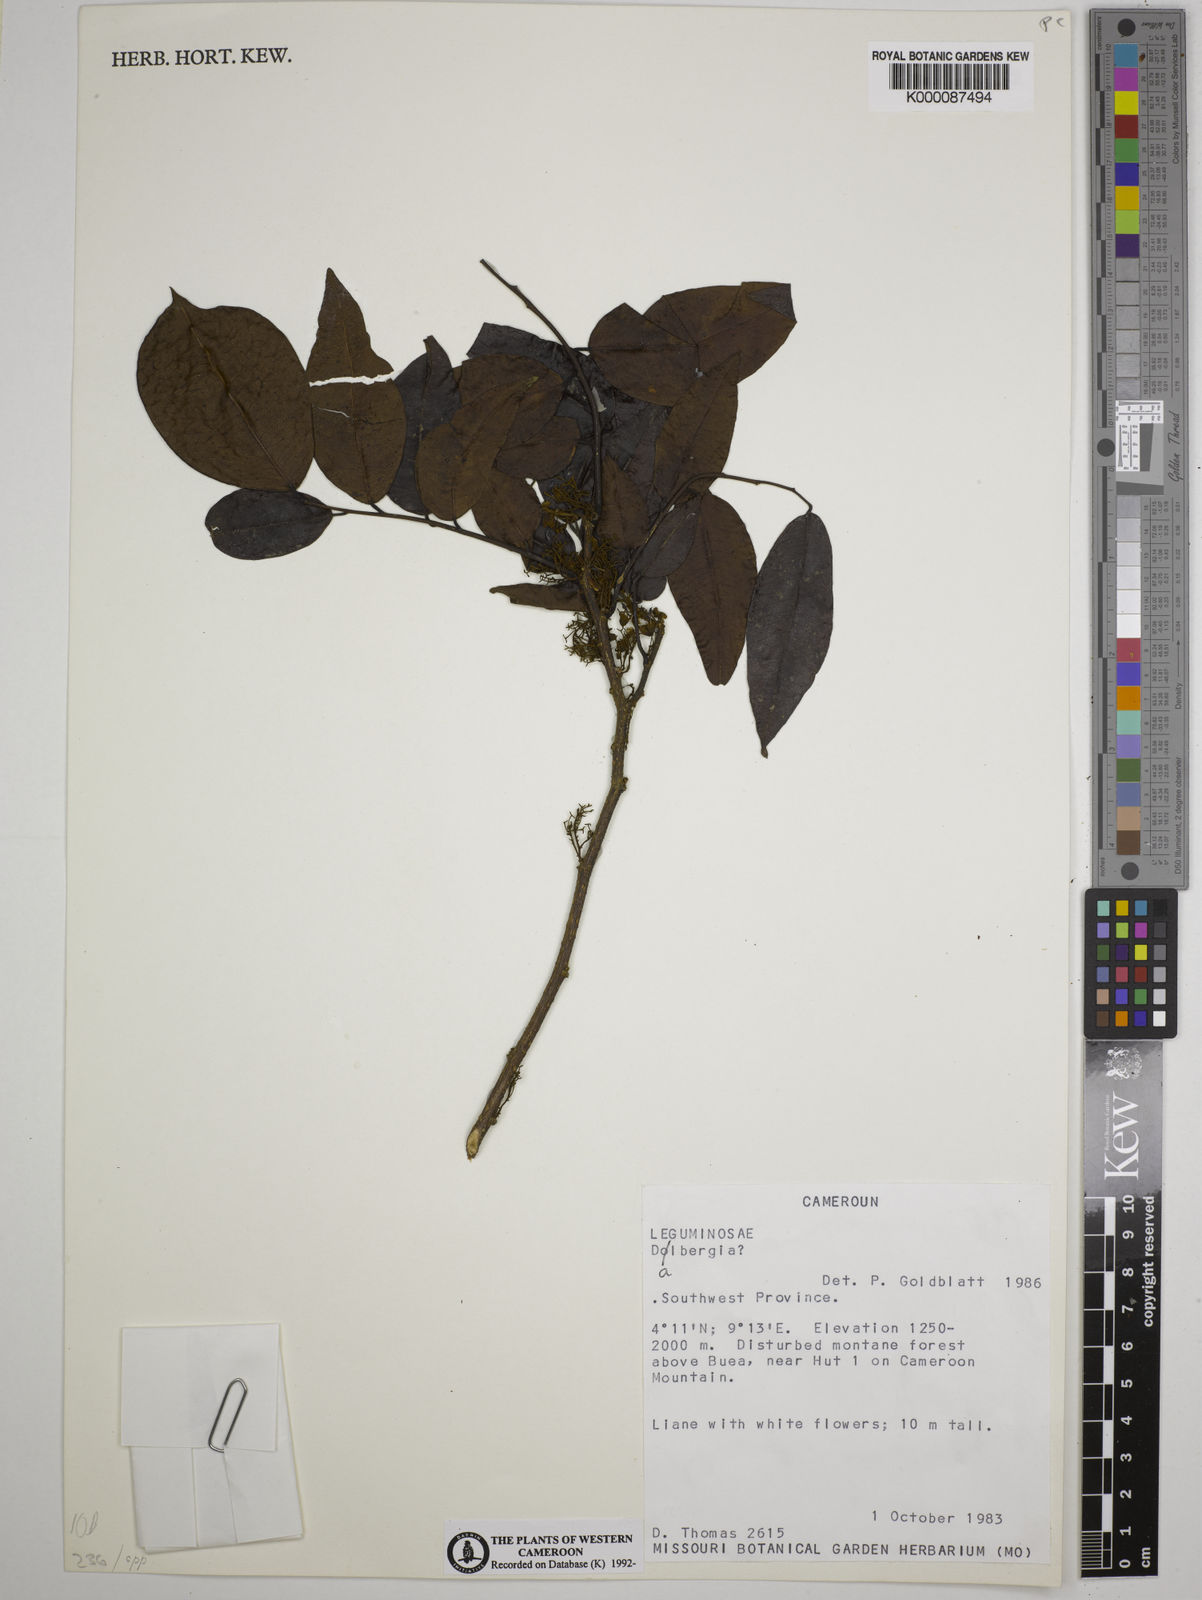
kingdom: Plantae
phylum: Tracheophyta
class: Magnoliopsida
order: Fabales
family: Fabaceae
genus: Dalbergia
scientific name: Dalbergia
